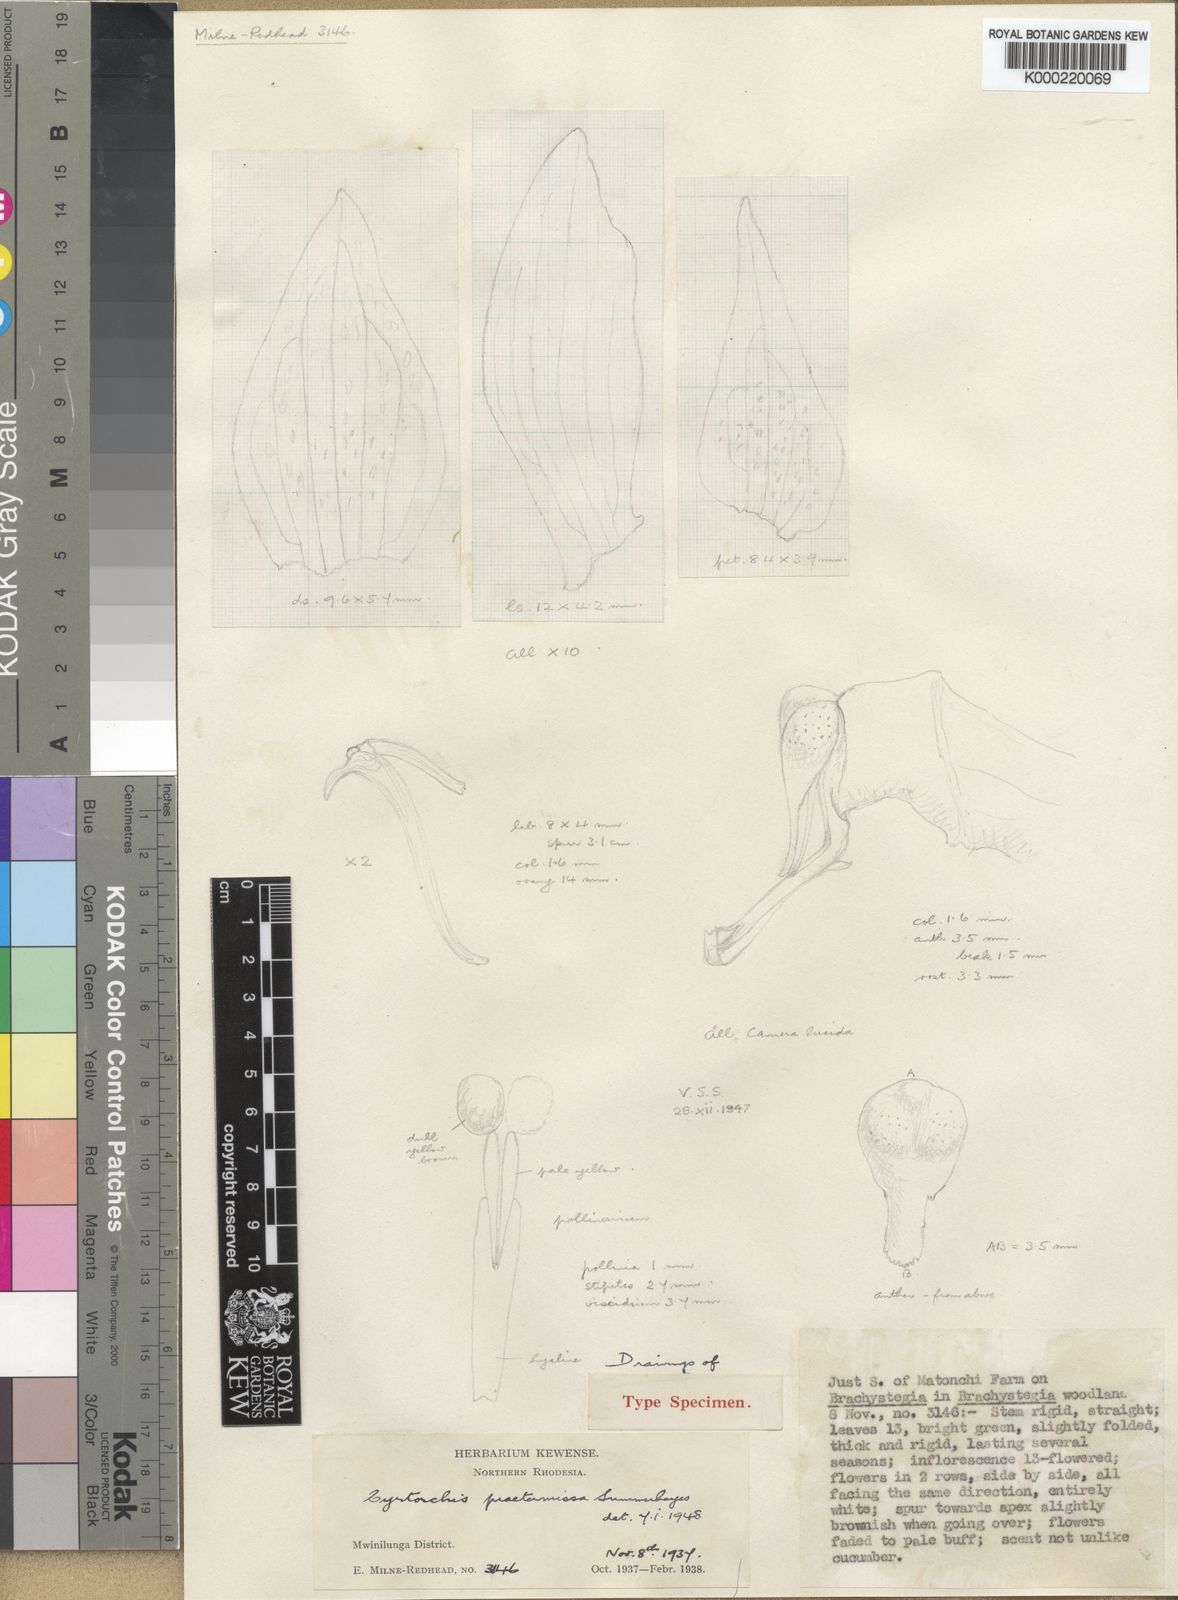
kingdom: Plantae
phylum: Tracheophyta
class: Liliopsida
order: Asparagales
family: Orchidaceae
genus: Cyrtorchis
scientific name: Cyrtorchis praetermissa
